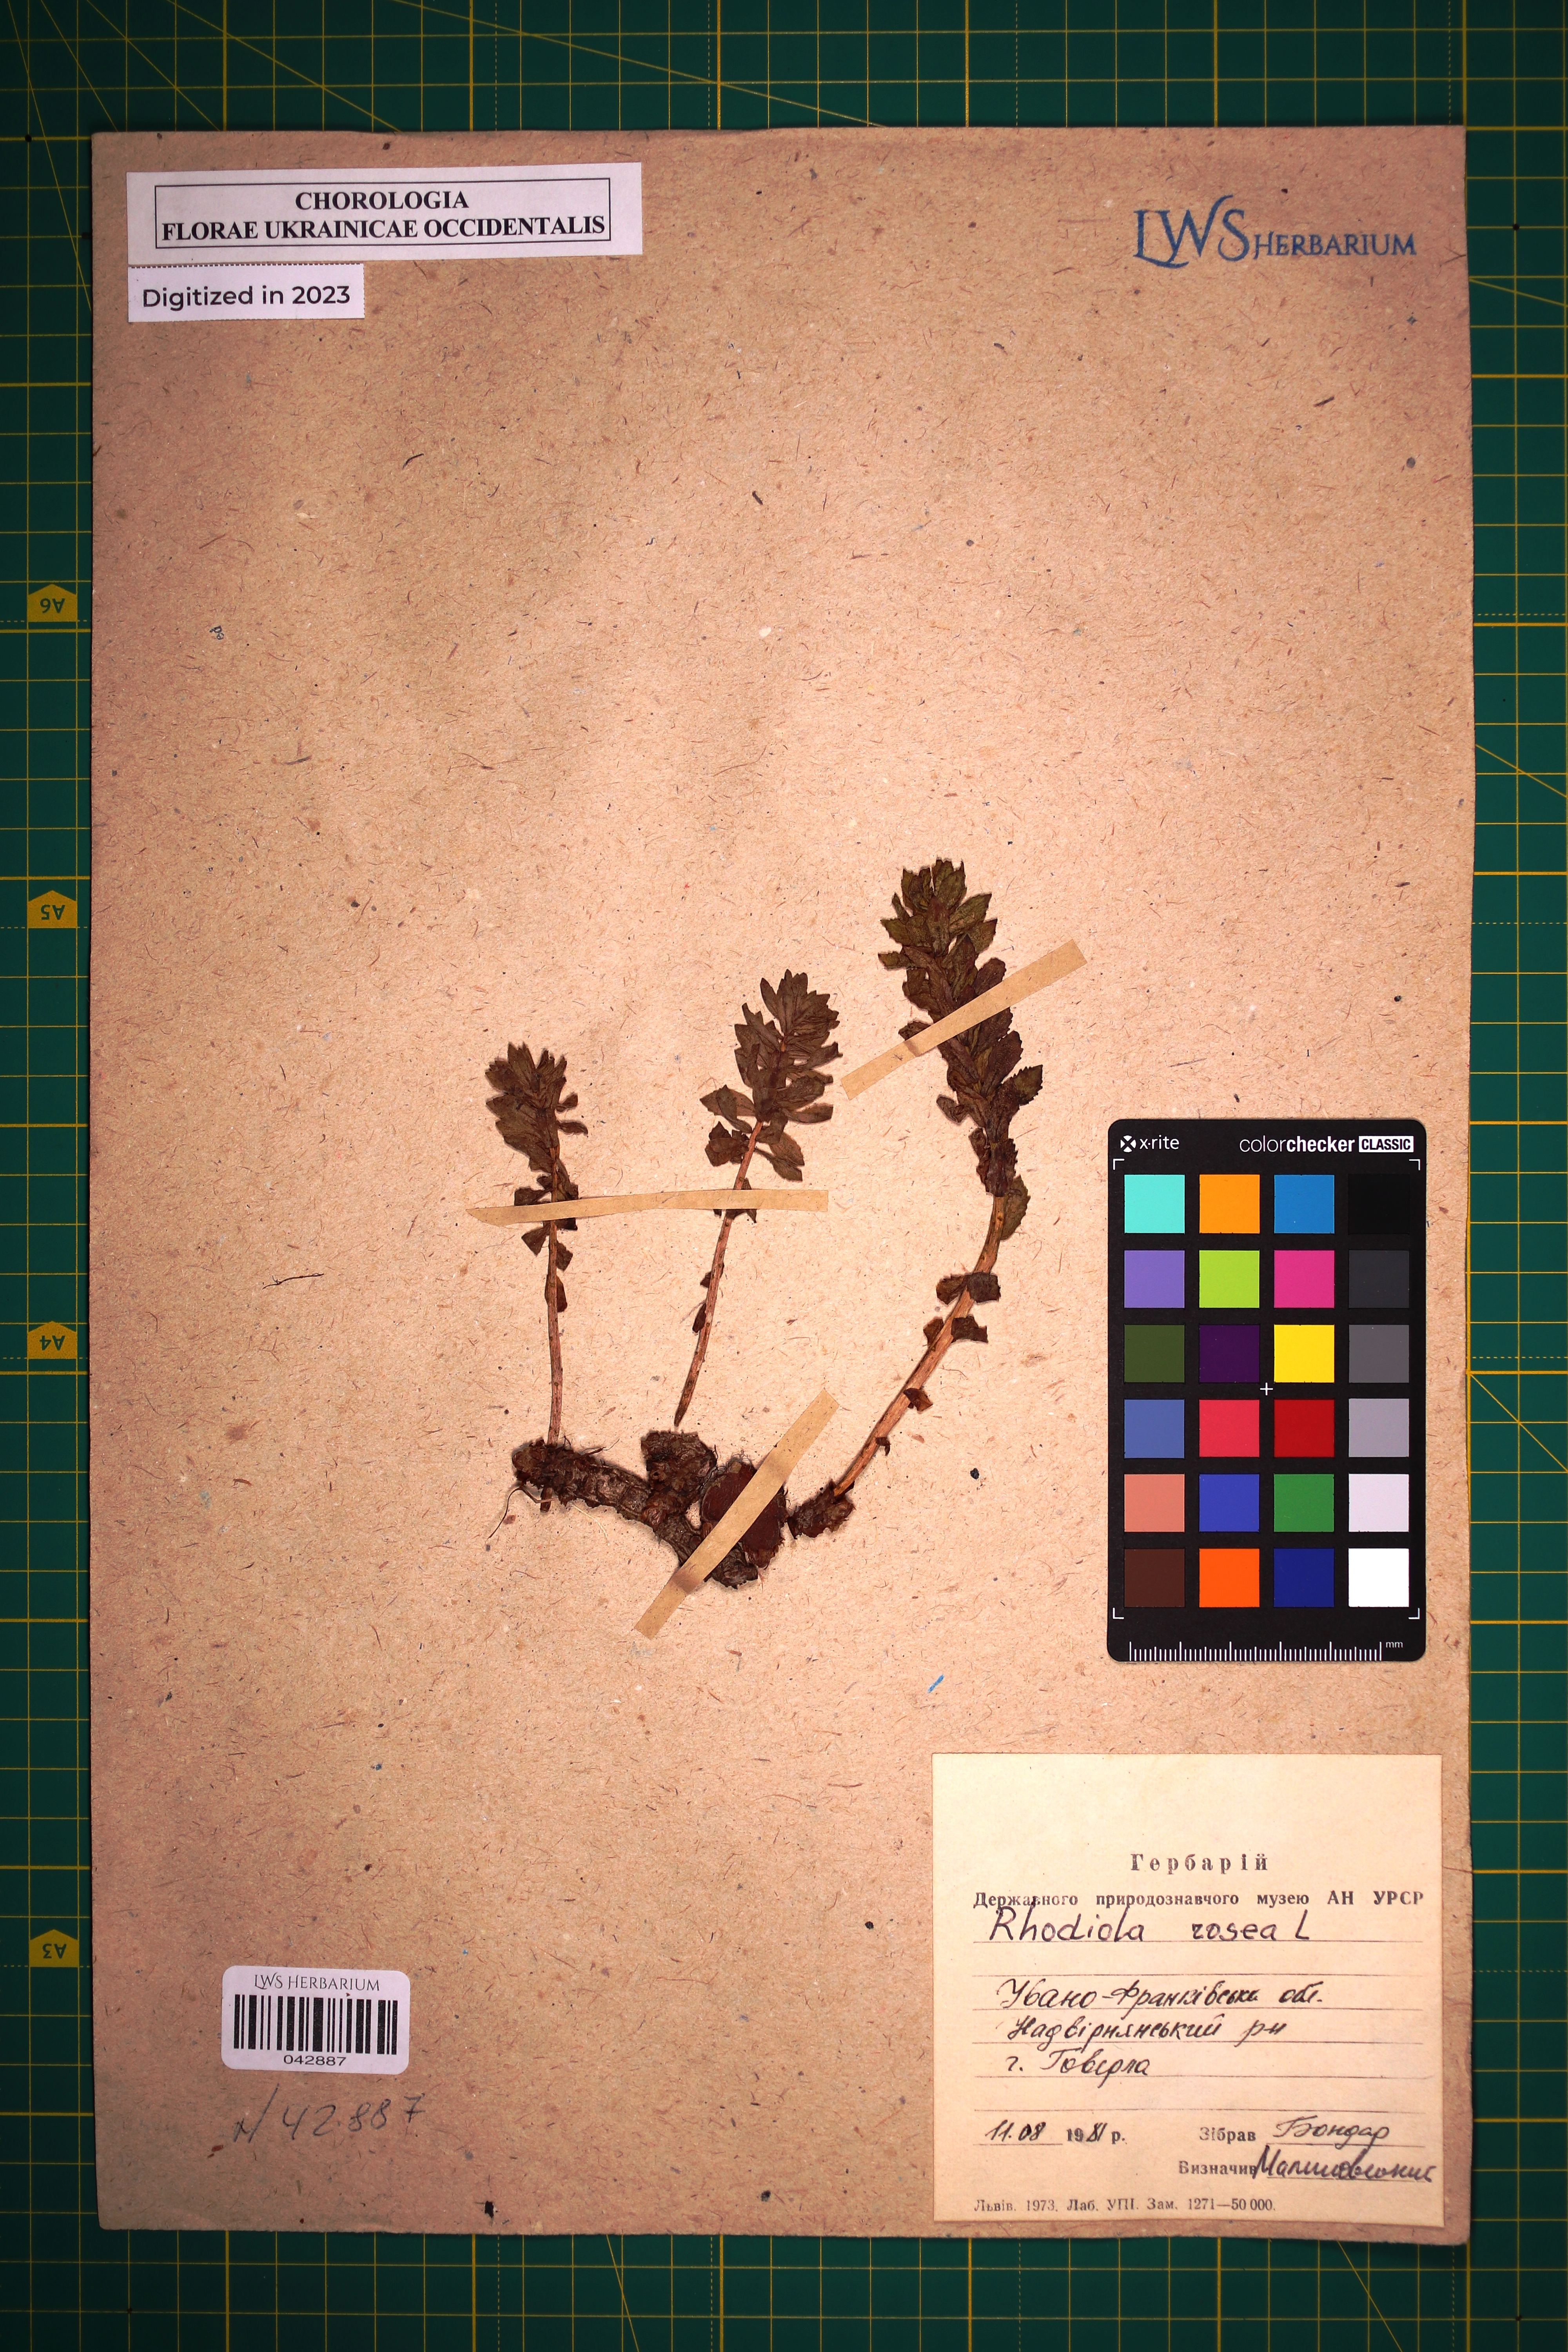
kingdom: Plantae
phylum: Tracheophyta
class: Magnoliopsida
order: Saxifragales
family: Crassulaceae
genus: Rhodiola
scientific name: Rhodiola rosea
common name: Roseroot
